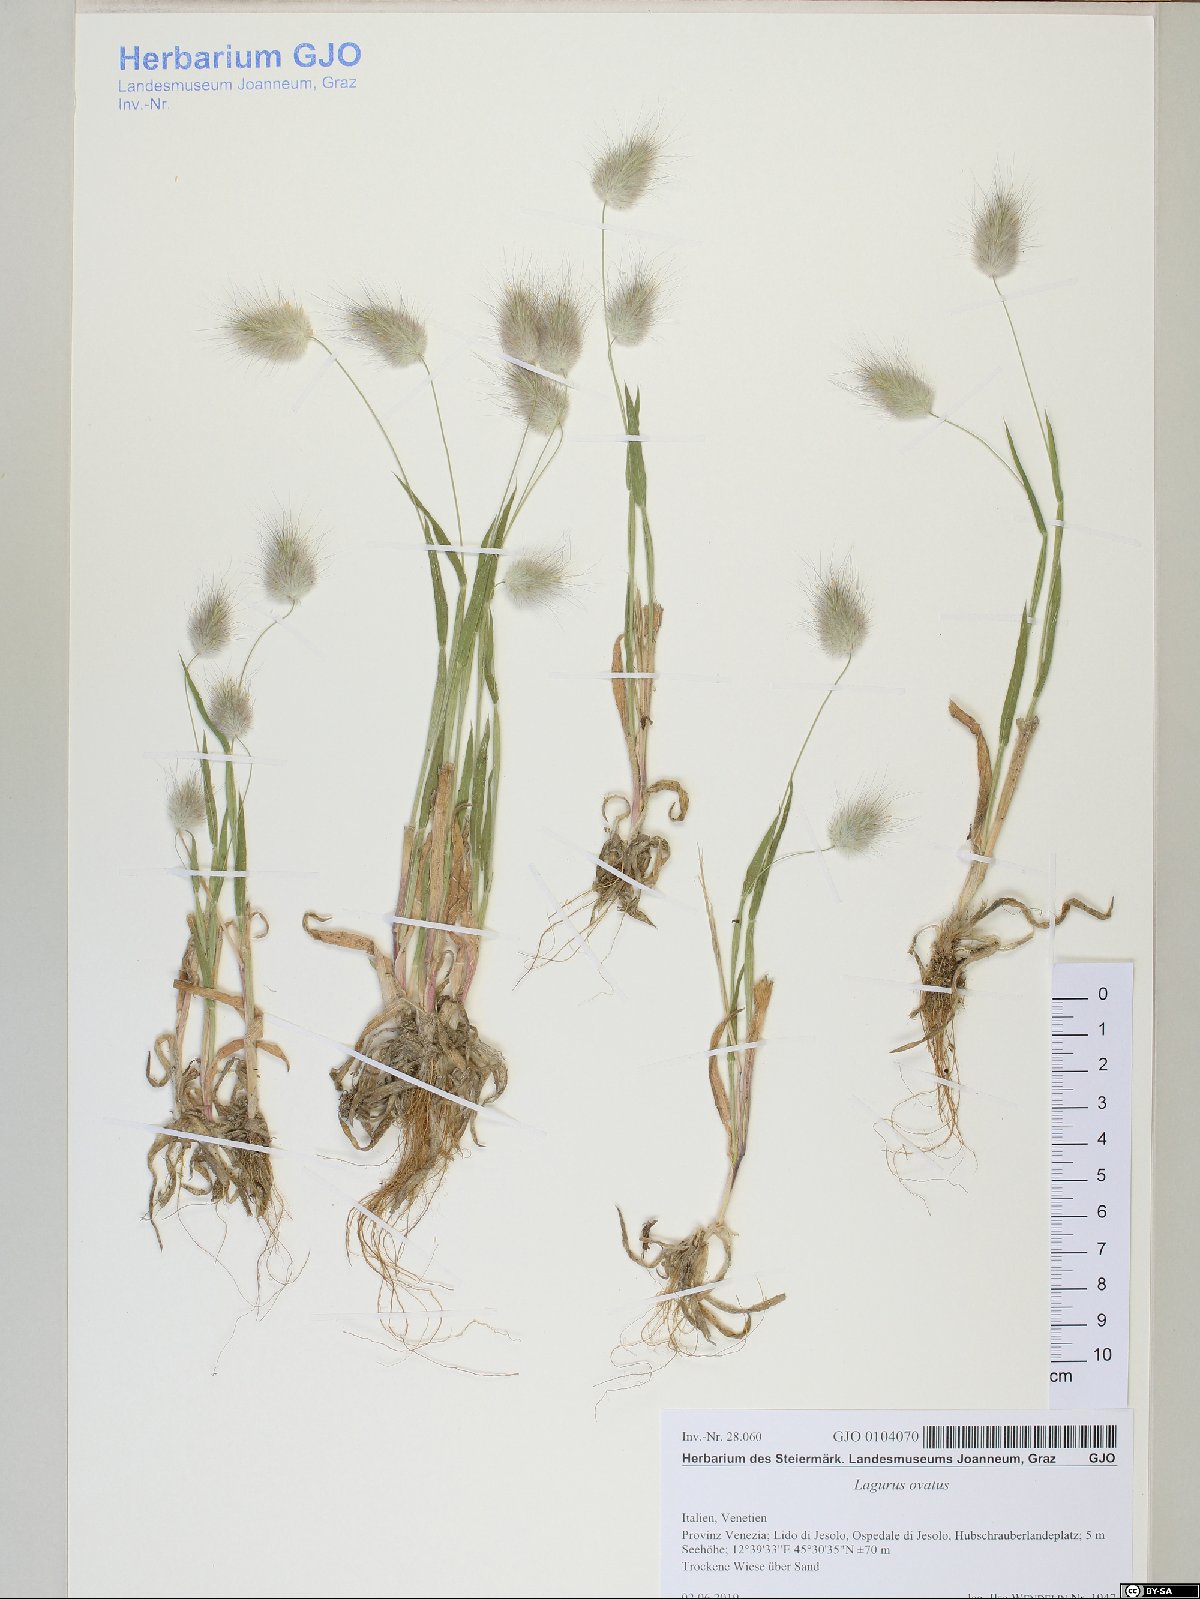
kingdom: Plantae
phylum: Tracheophyta
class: Liliopsida
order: Poales
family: Poaceae
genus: Lagurus
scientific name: Lagurus ovatus
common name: Hare's-tail
